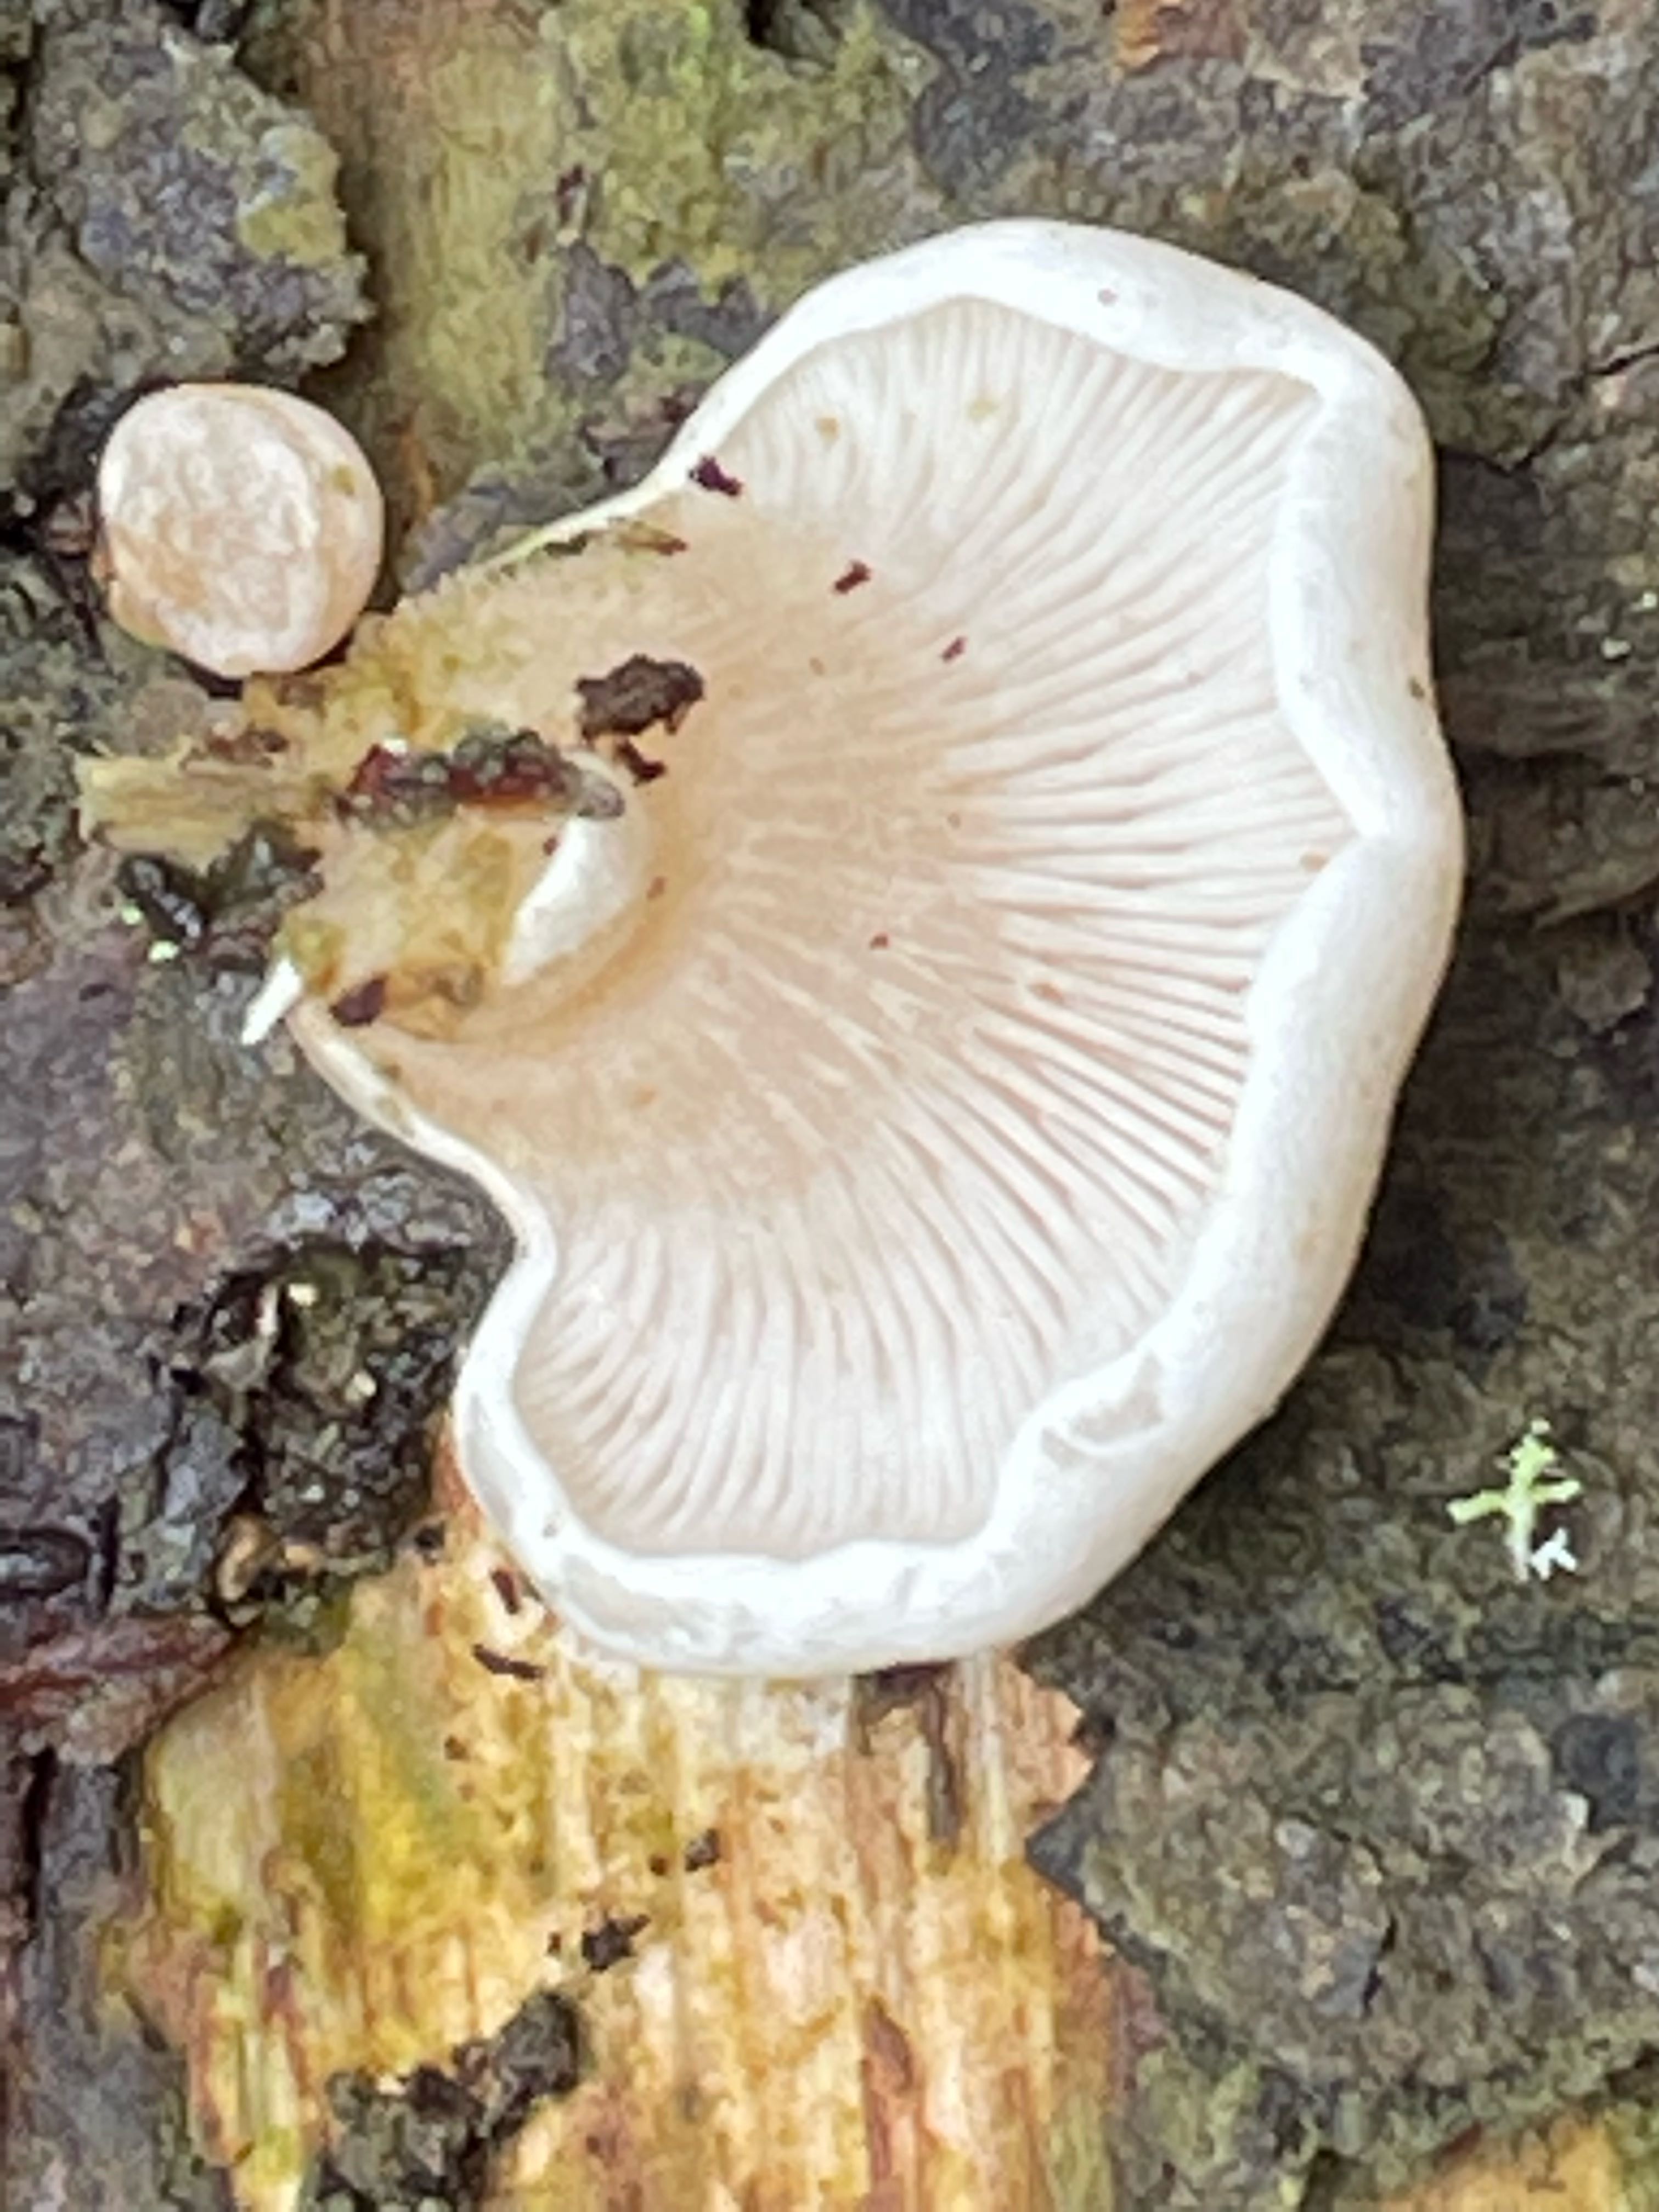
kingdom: Fungi
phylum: Basidiomycota
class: Agaricomycetes
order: Agaricales
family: Mycenaceae
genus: Panellus
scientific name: Panellus mitis
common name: mild epaulethat
